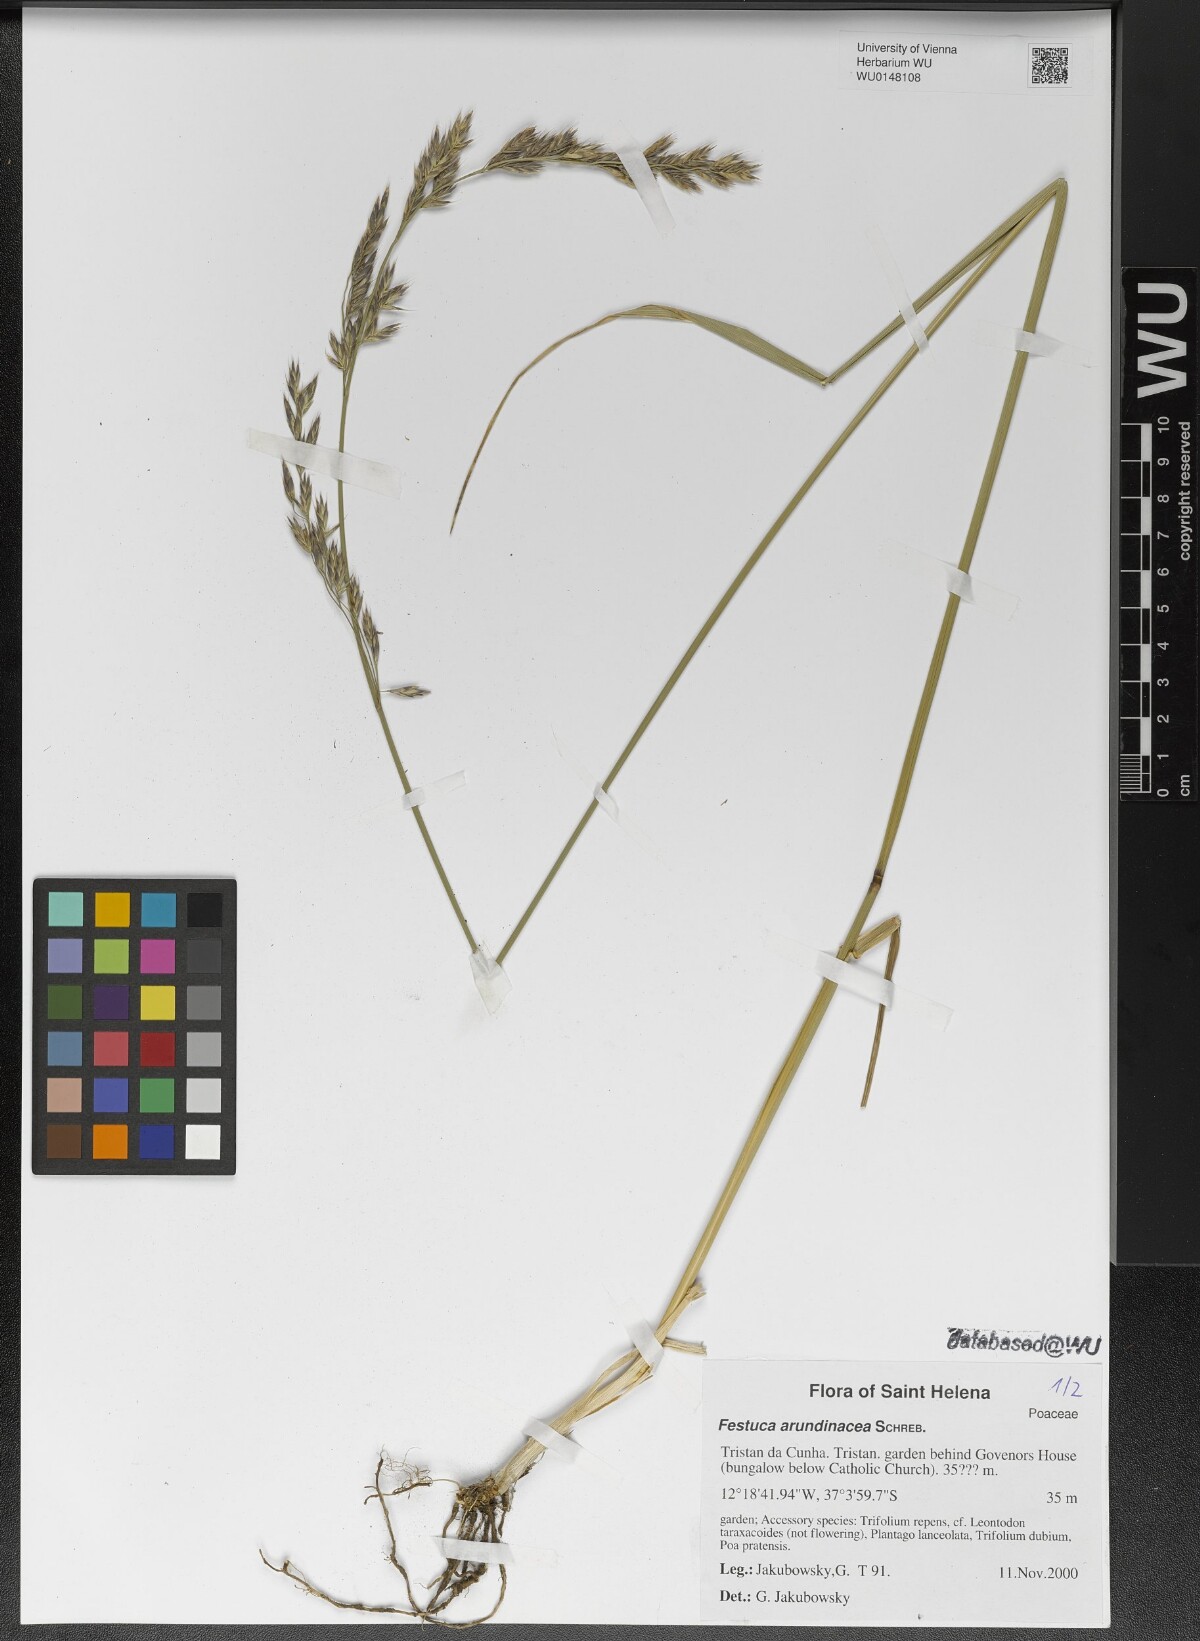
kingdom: Plantae
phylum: Tracheophyta
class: Liliopsida
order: Poales
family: Poaceae
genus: Lolium
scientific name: Lolium arundinaceum
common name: Reed fescue
